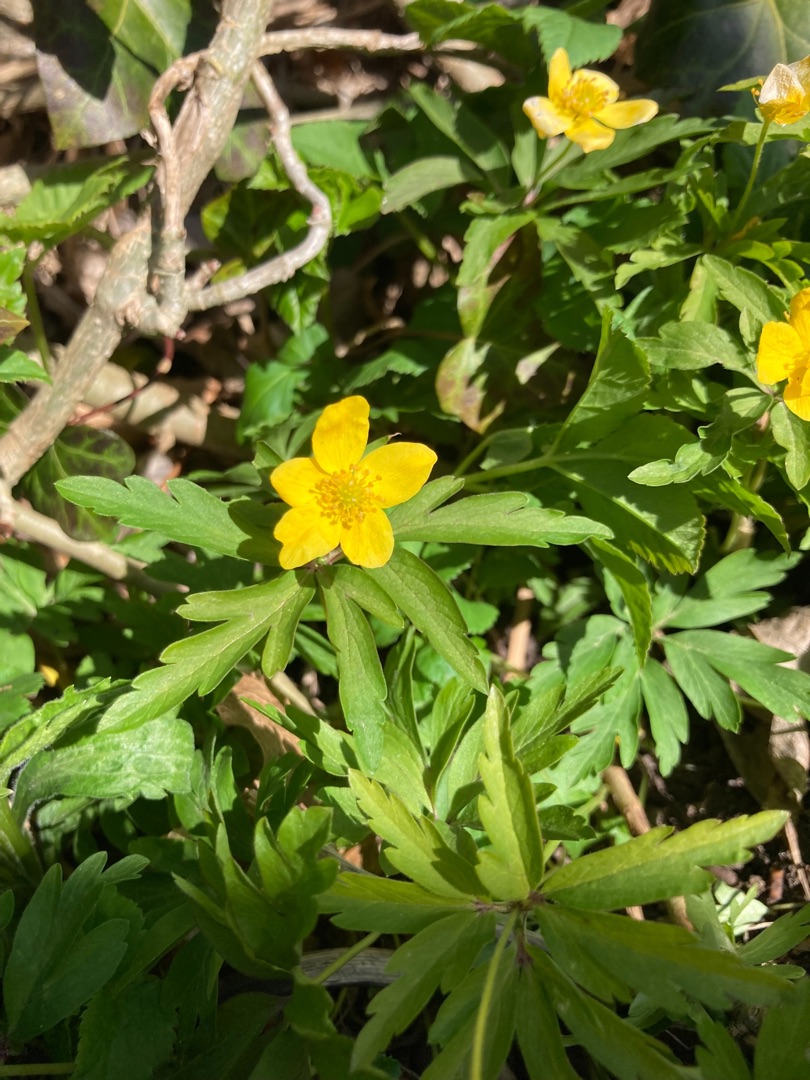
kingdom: Plantae
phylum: Tracheophyta
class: Magnoliopsida
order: Ranunculales
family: Ranunculaceae
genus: Anemone
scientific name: Anemone ranunculoides
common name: Gul anemone
